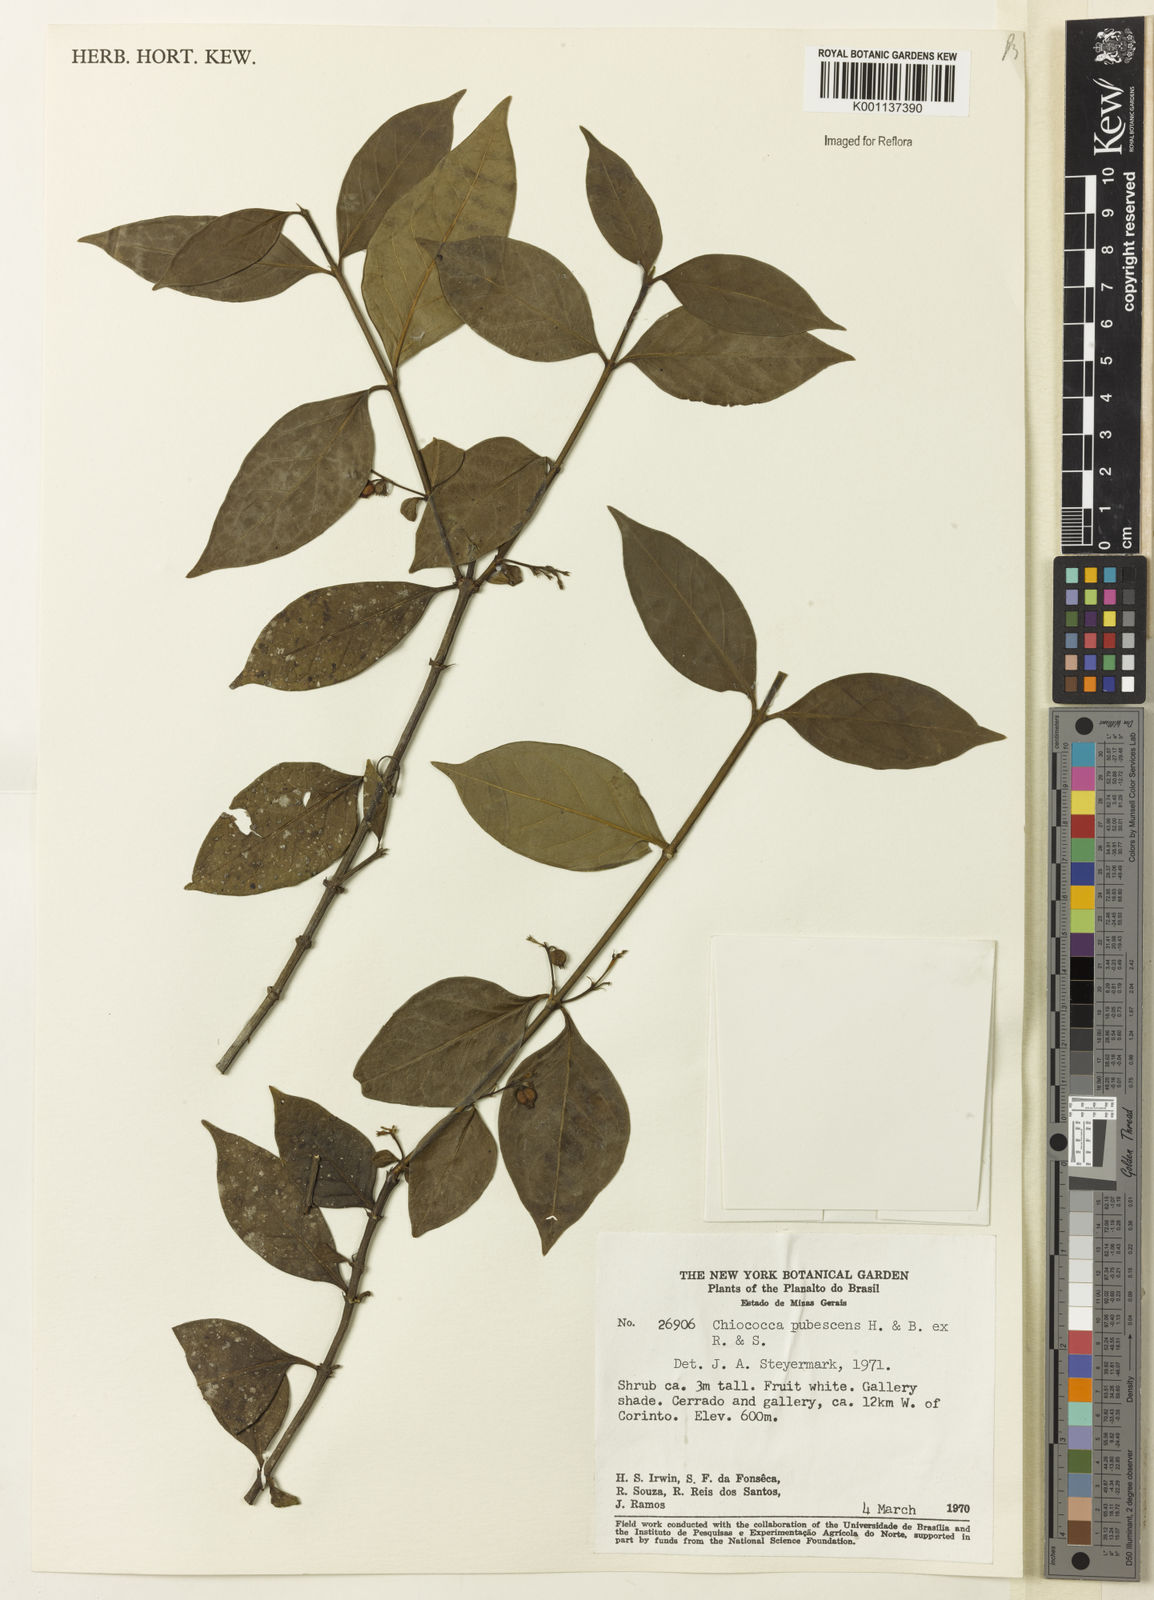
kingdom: Plantae
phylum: Tracheophyta
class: Magnoliopsida
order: Gentianales
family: Rubiaceae
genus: Chiococca
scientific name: Chiococca alba
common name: Snowberry
